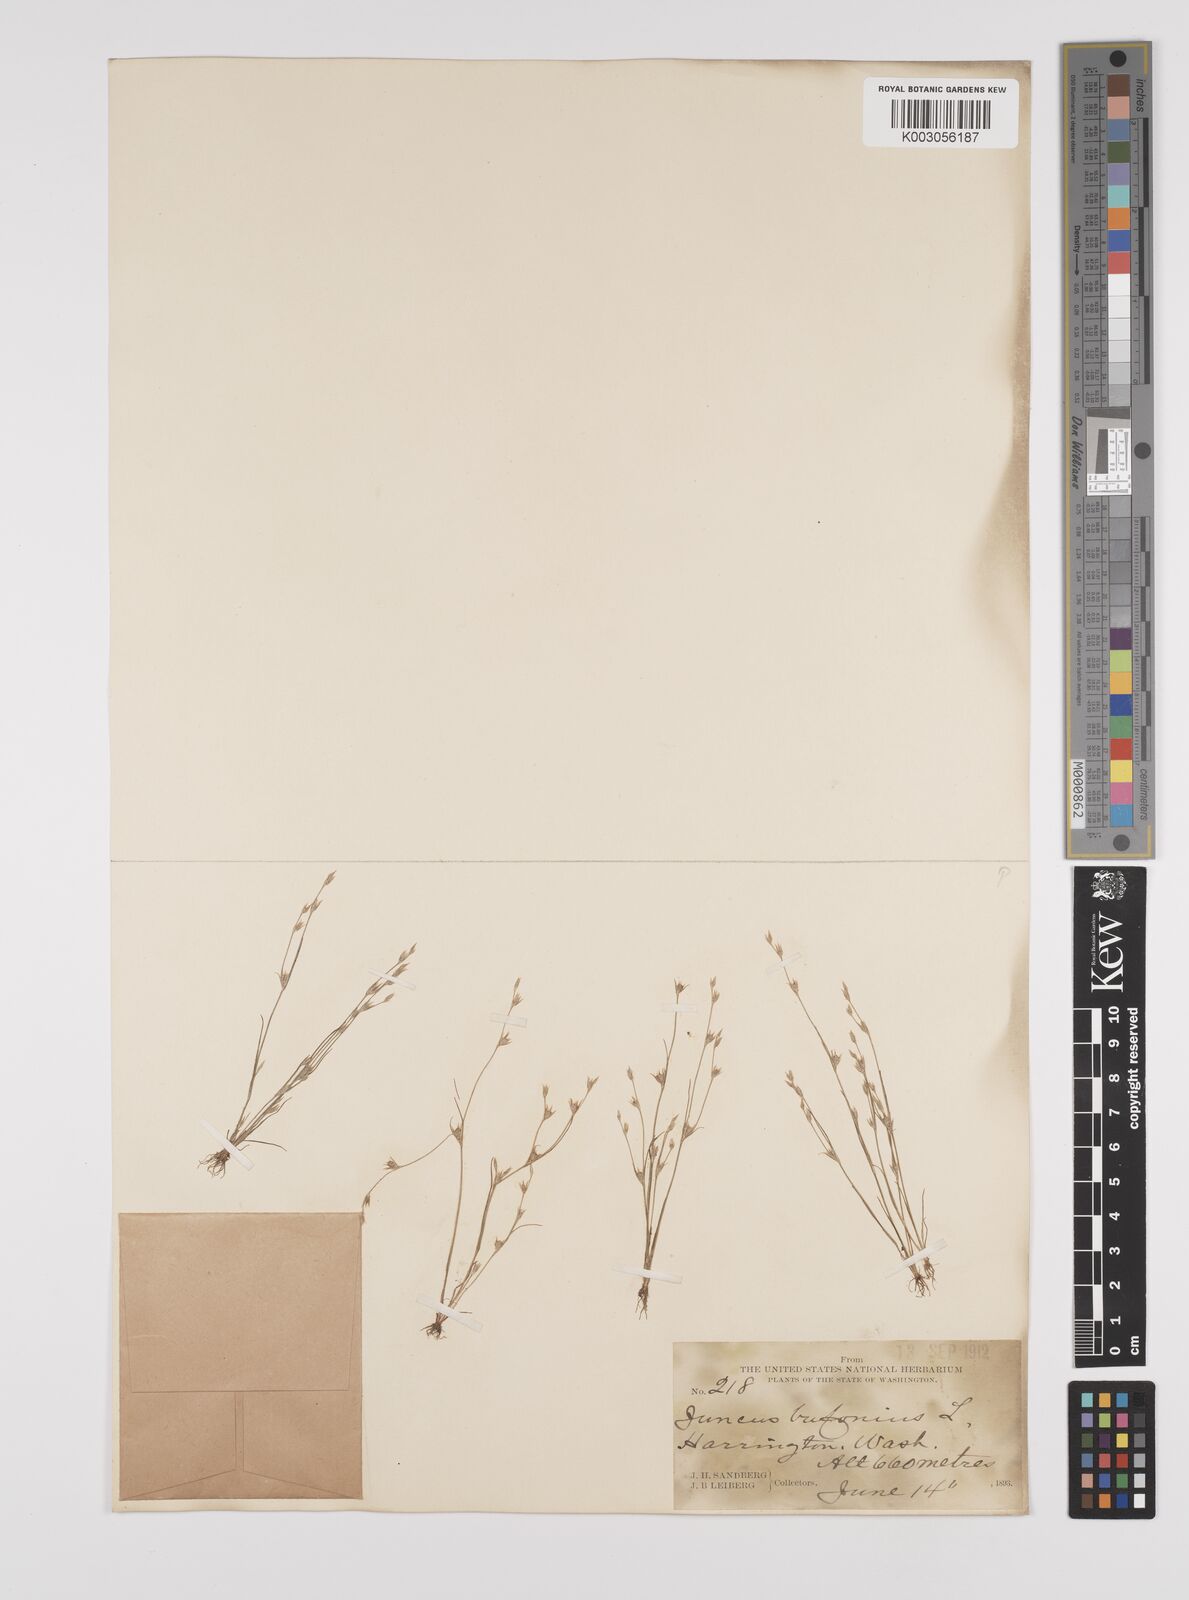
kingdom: Plantae
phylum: Tracheophyta
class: Liliopsida
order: Poales
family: Juncaceae
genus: Juncus
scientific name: Juncus bufonius
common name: Toad rush
